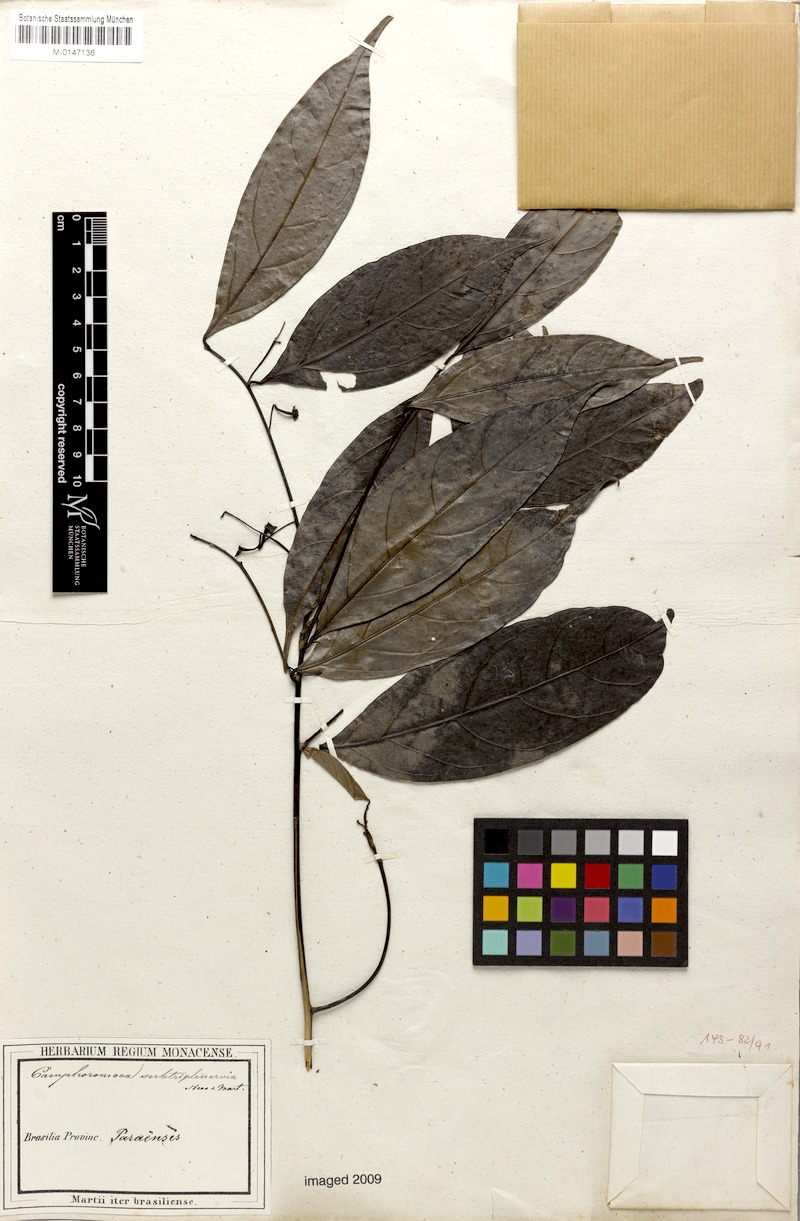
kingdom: Plantae
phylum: Tracheophyta
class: Magnoliopsida
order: Laurales
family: Lauraceae
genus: Ocotea
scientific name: Ocotea camphoromoea
